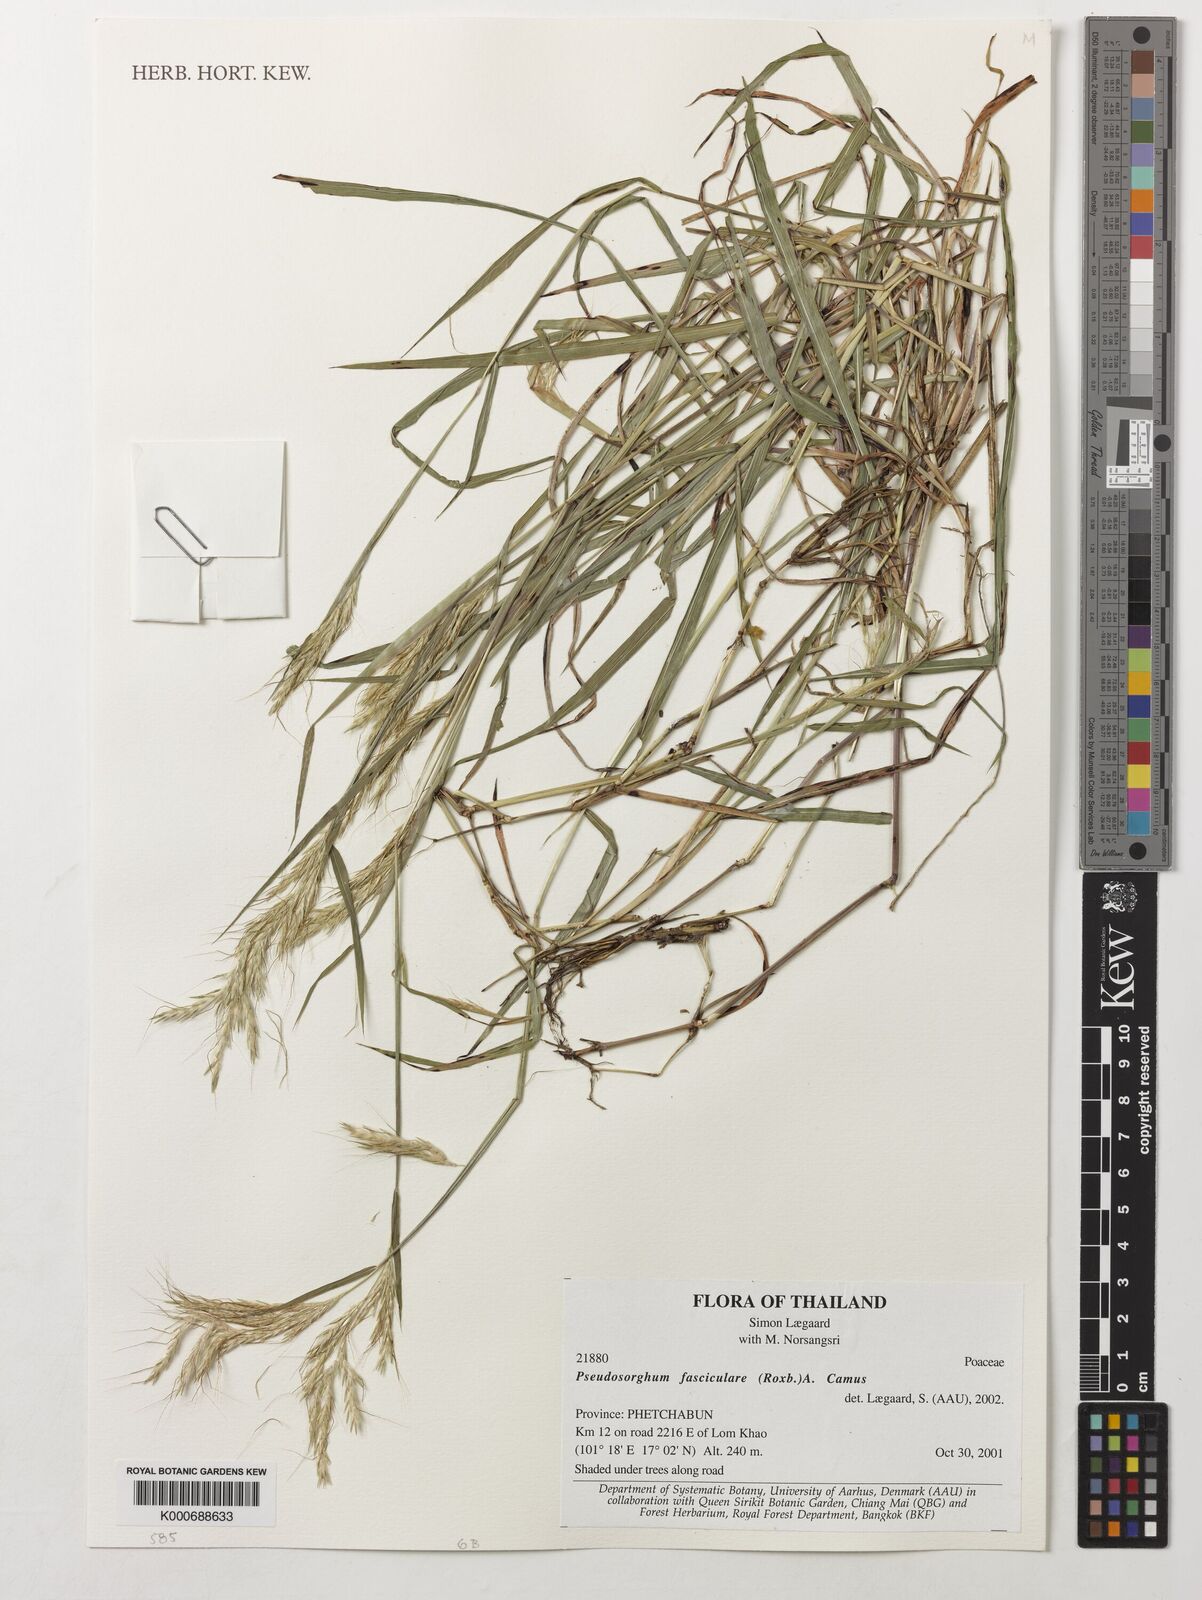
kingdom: Plantae
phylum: Tracheophyta
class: Liliopsida
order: Poales
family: Poaceae
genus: Pseudosorghum
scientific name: Pseudosorghum fasciculare
